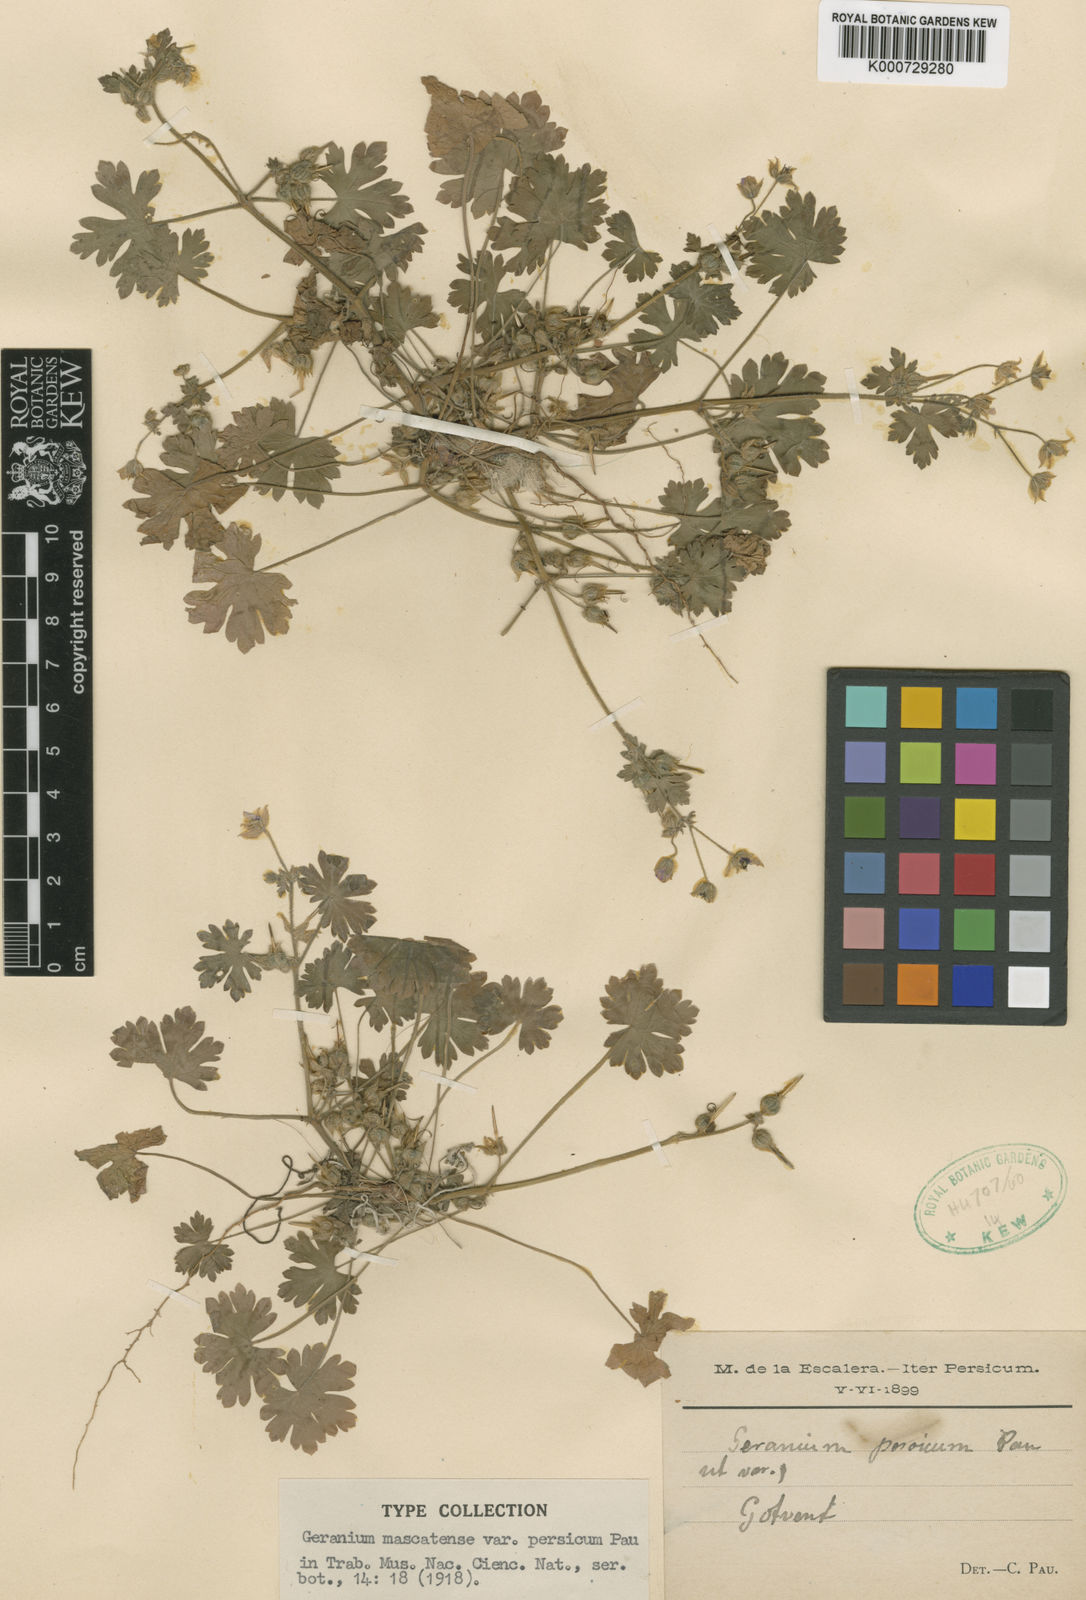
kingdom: Plantae
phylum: Tracheophyta
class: Magnoliopsida
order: Geraniales
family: Geraniaceae
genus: Geranium
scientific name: Geranium mascatense
